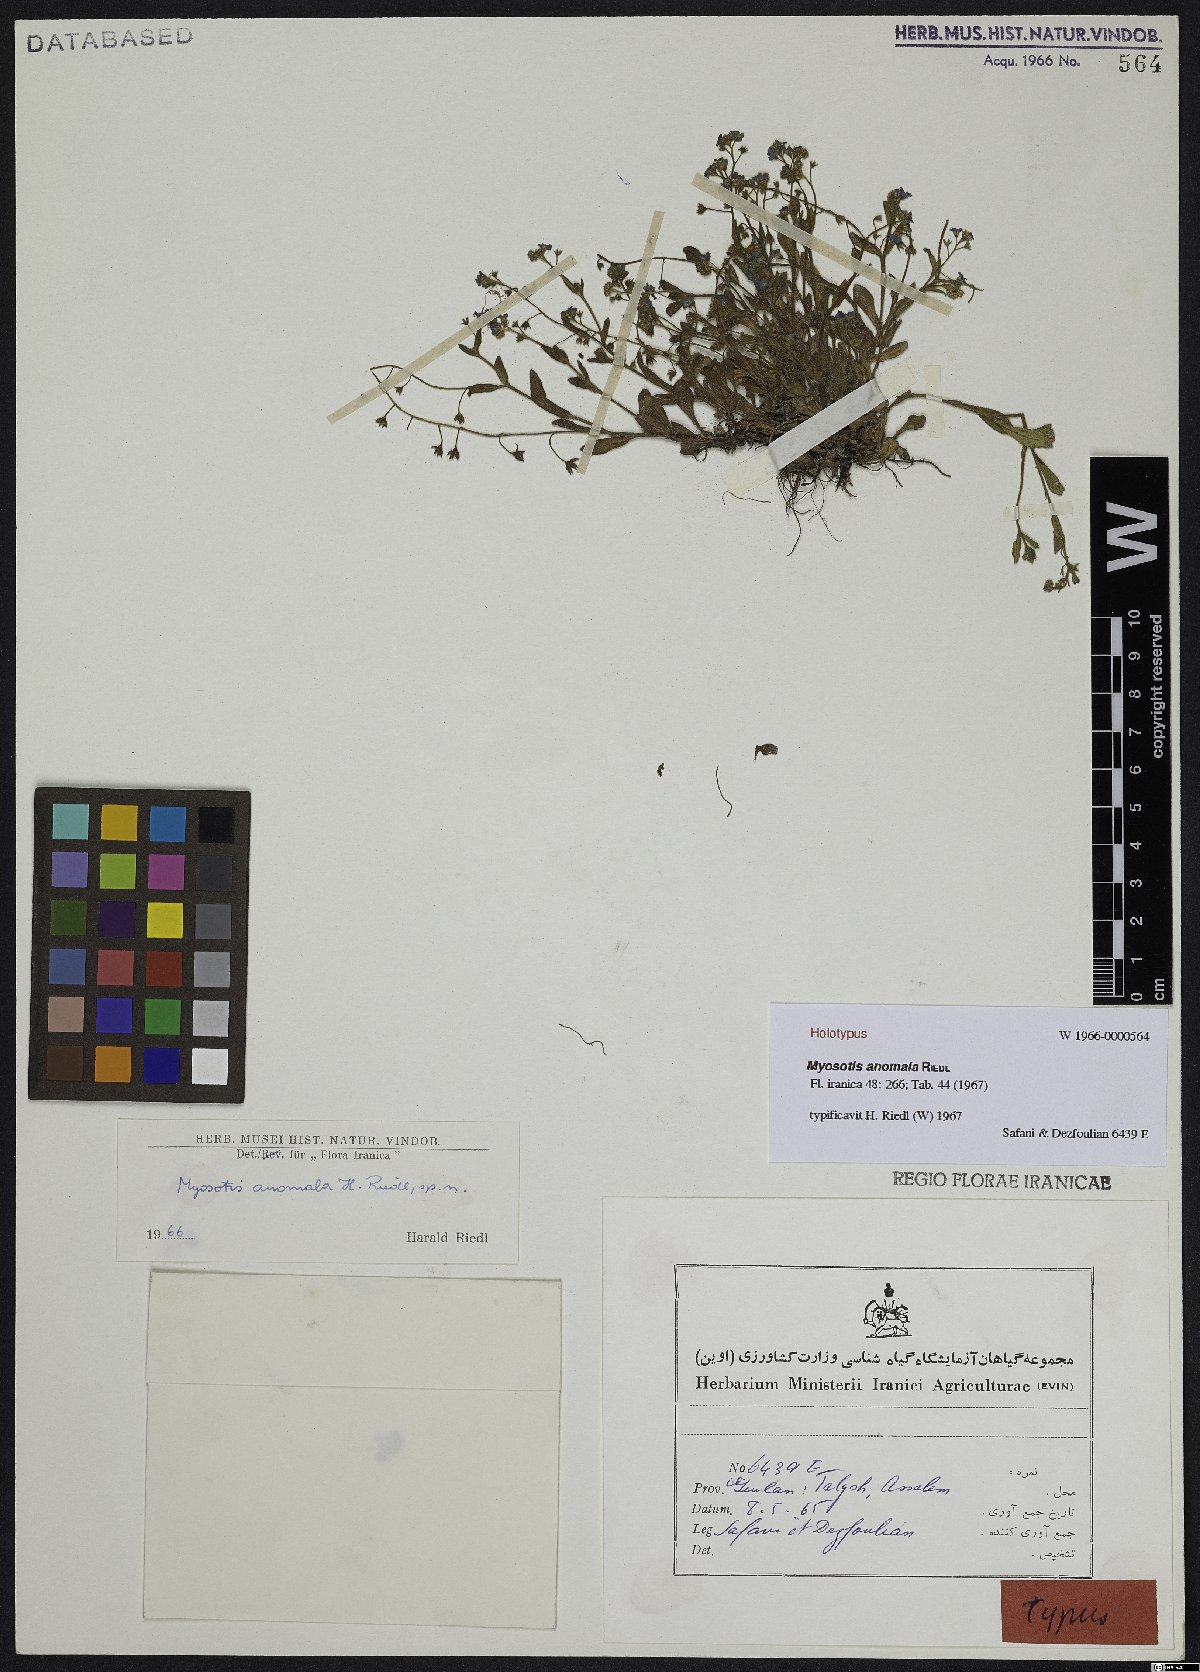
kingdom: Plantae
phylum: Tracheophyta
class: Magnoliopsida
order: Boraginales
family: Boraginaceae
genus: Myosotis
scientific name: Myosotis anomala
